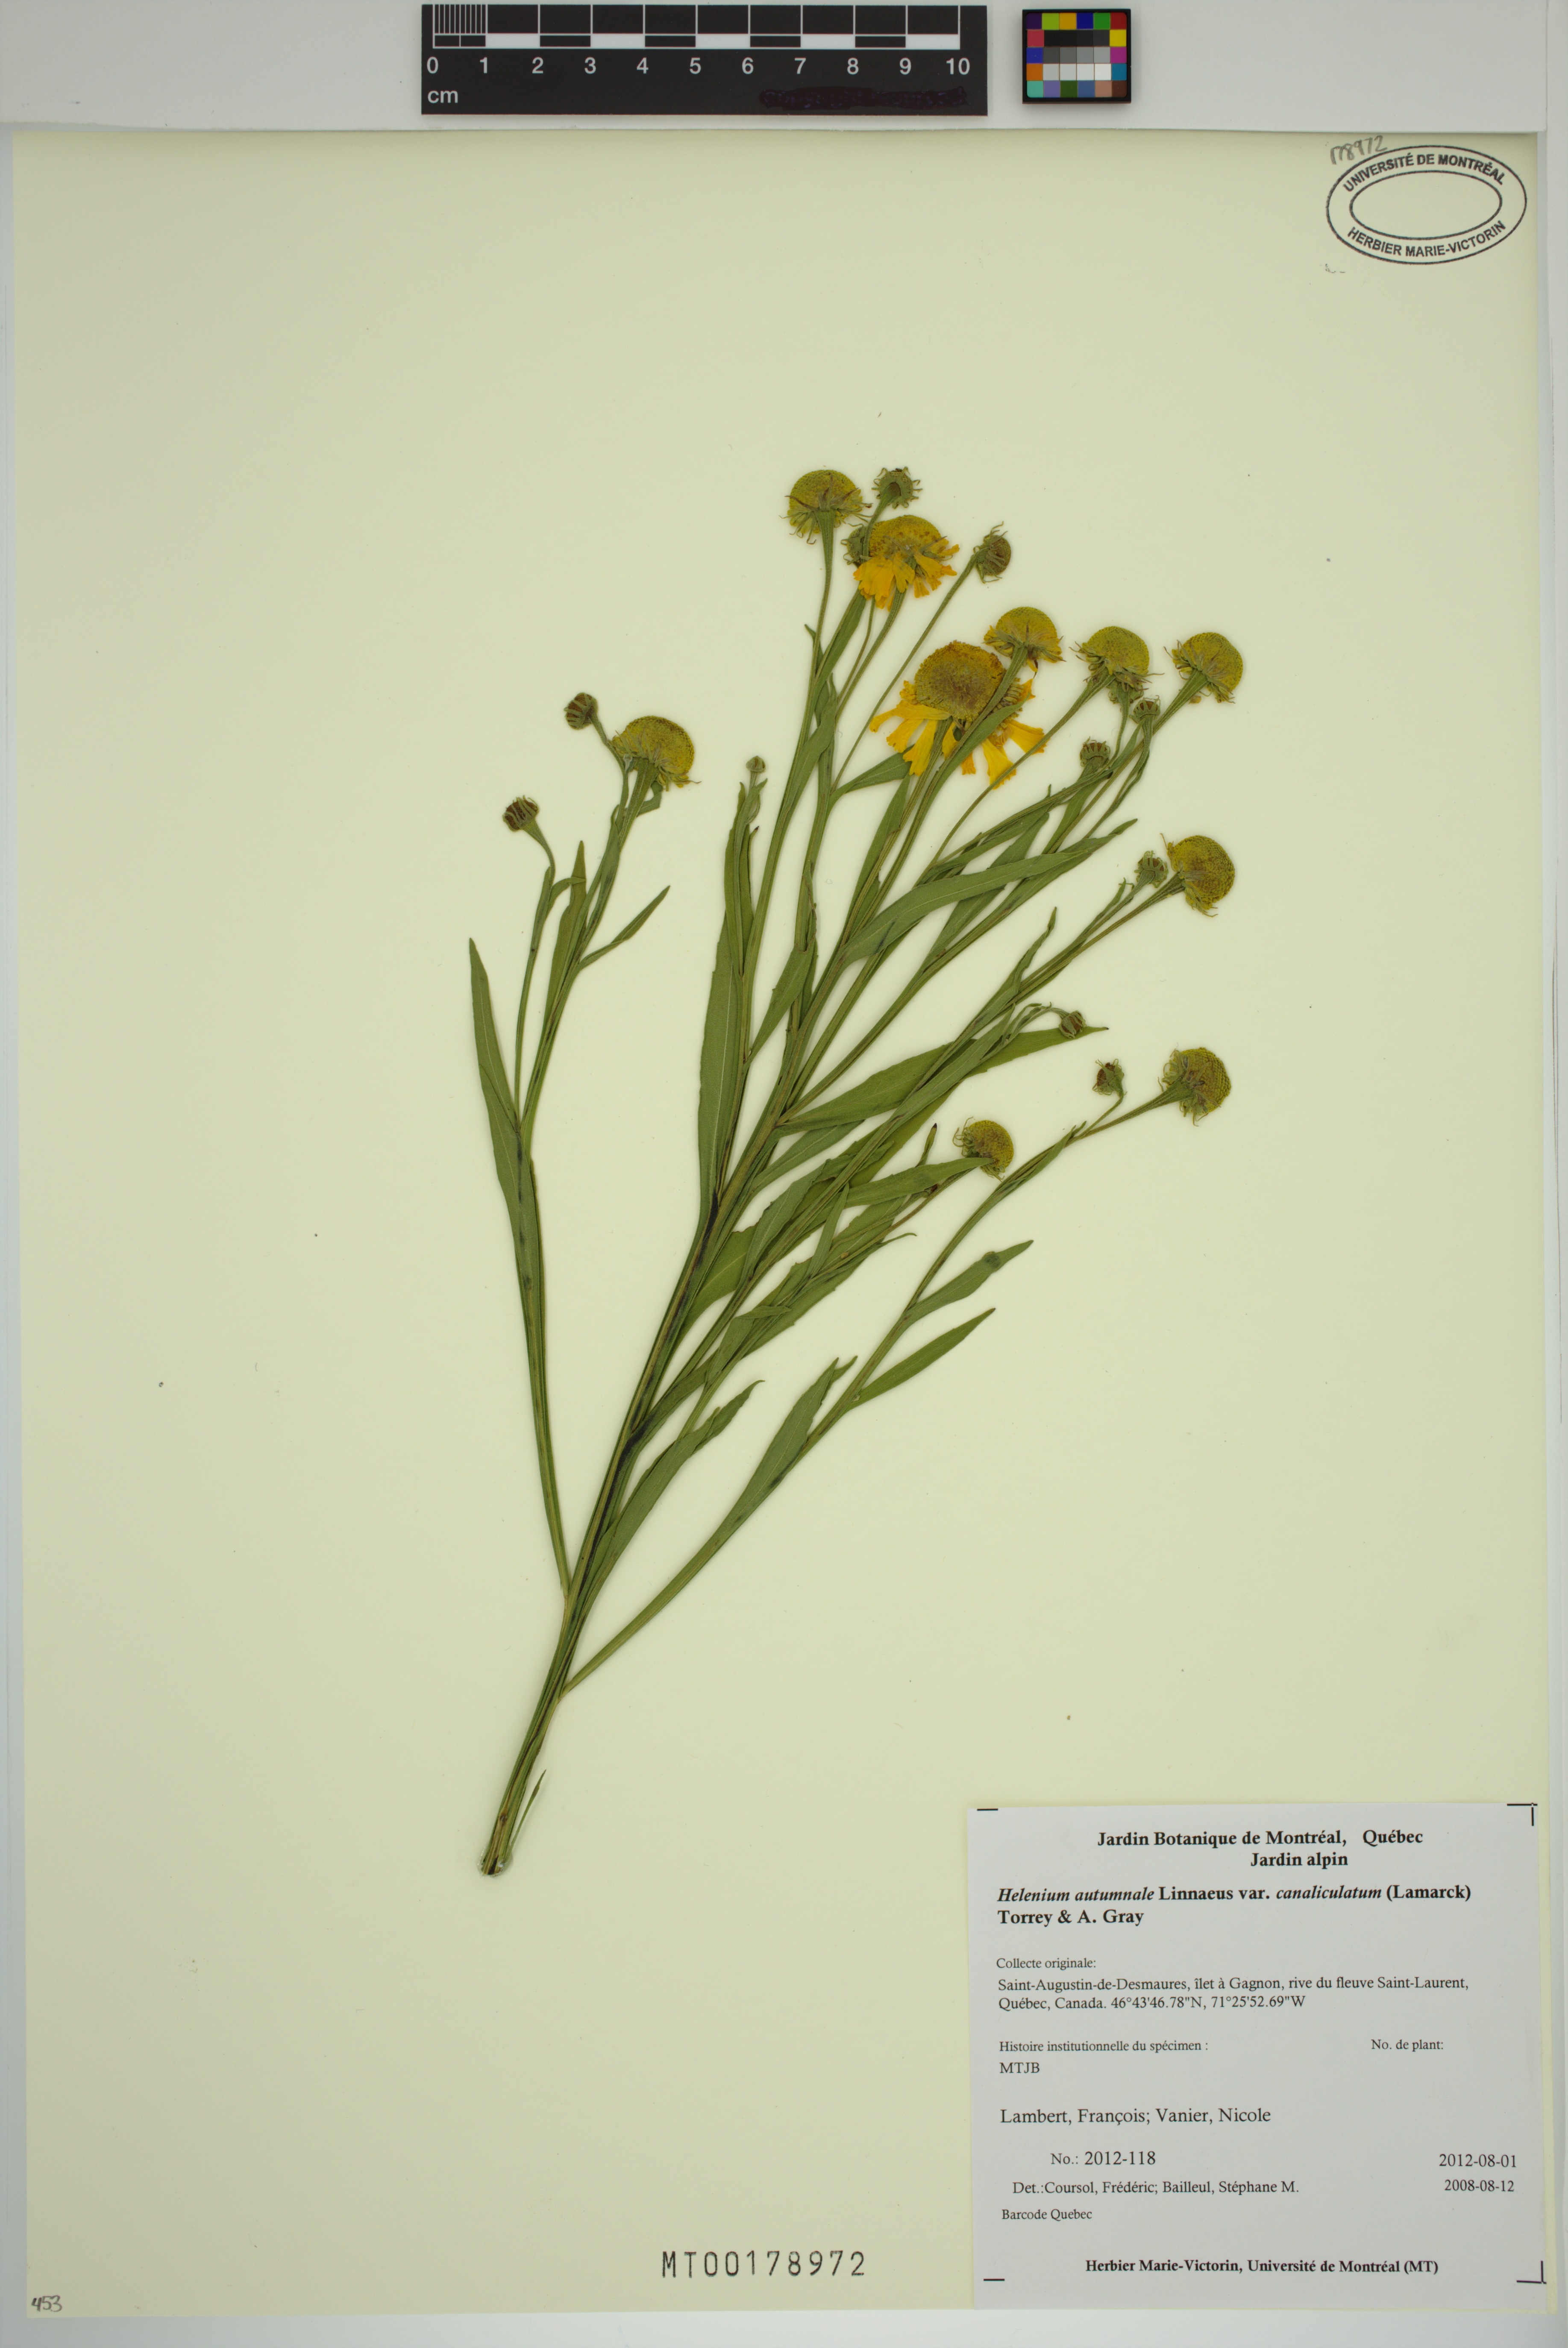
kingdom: Plantae
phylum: Tracheophyta
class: Magnoliopsida
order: Asterales
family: Asteraceae
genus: Helenium
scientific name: Helenium autumnale
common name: Sneezeweed
